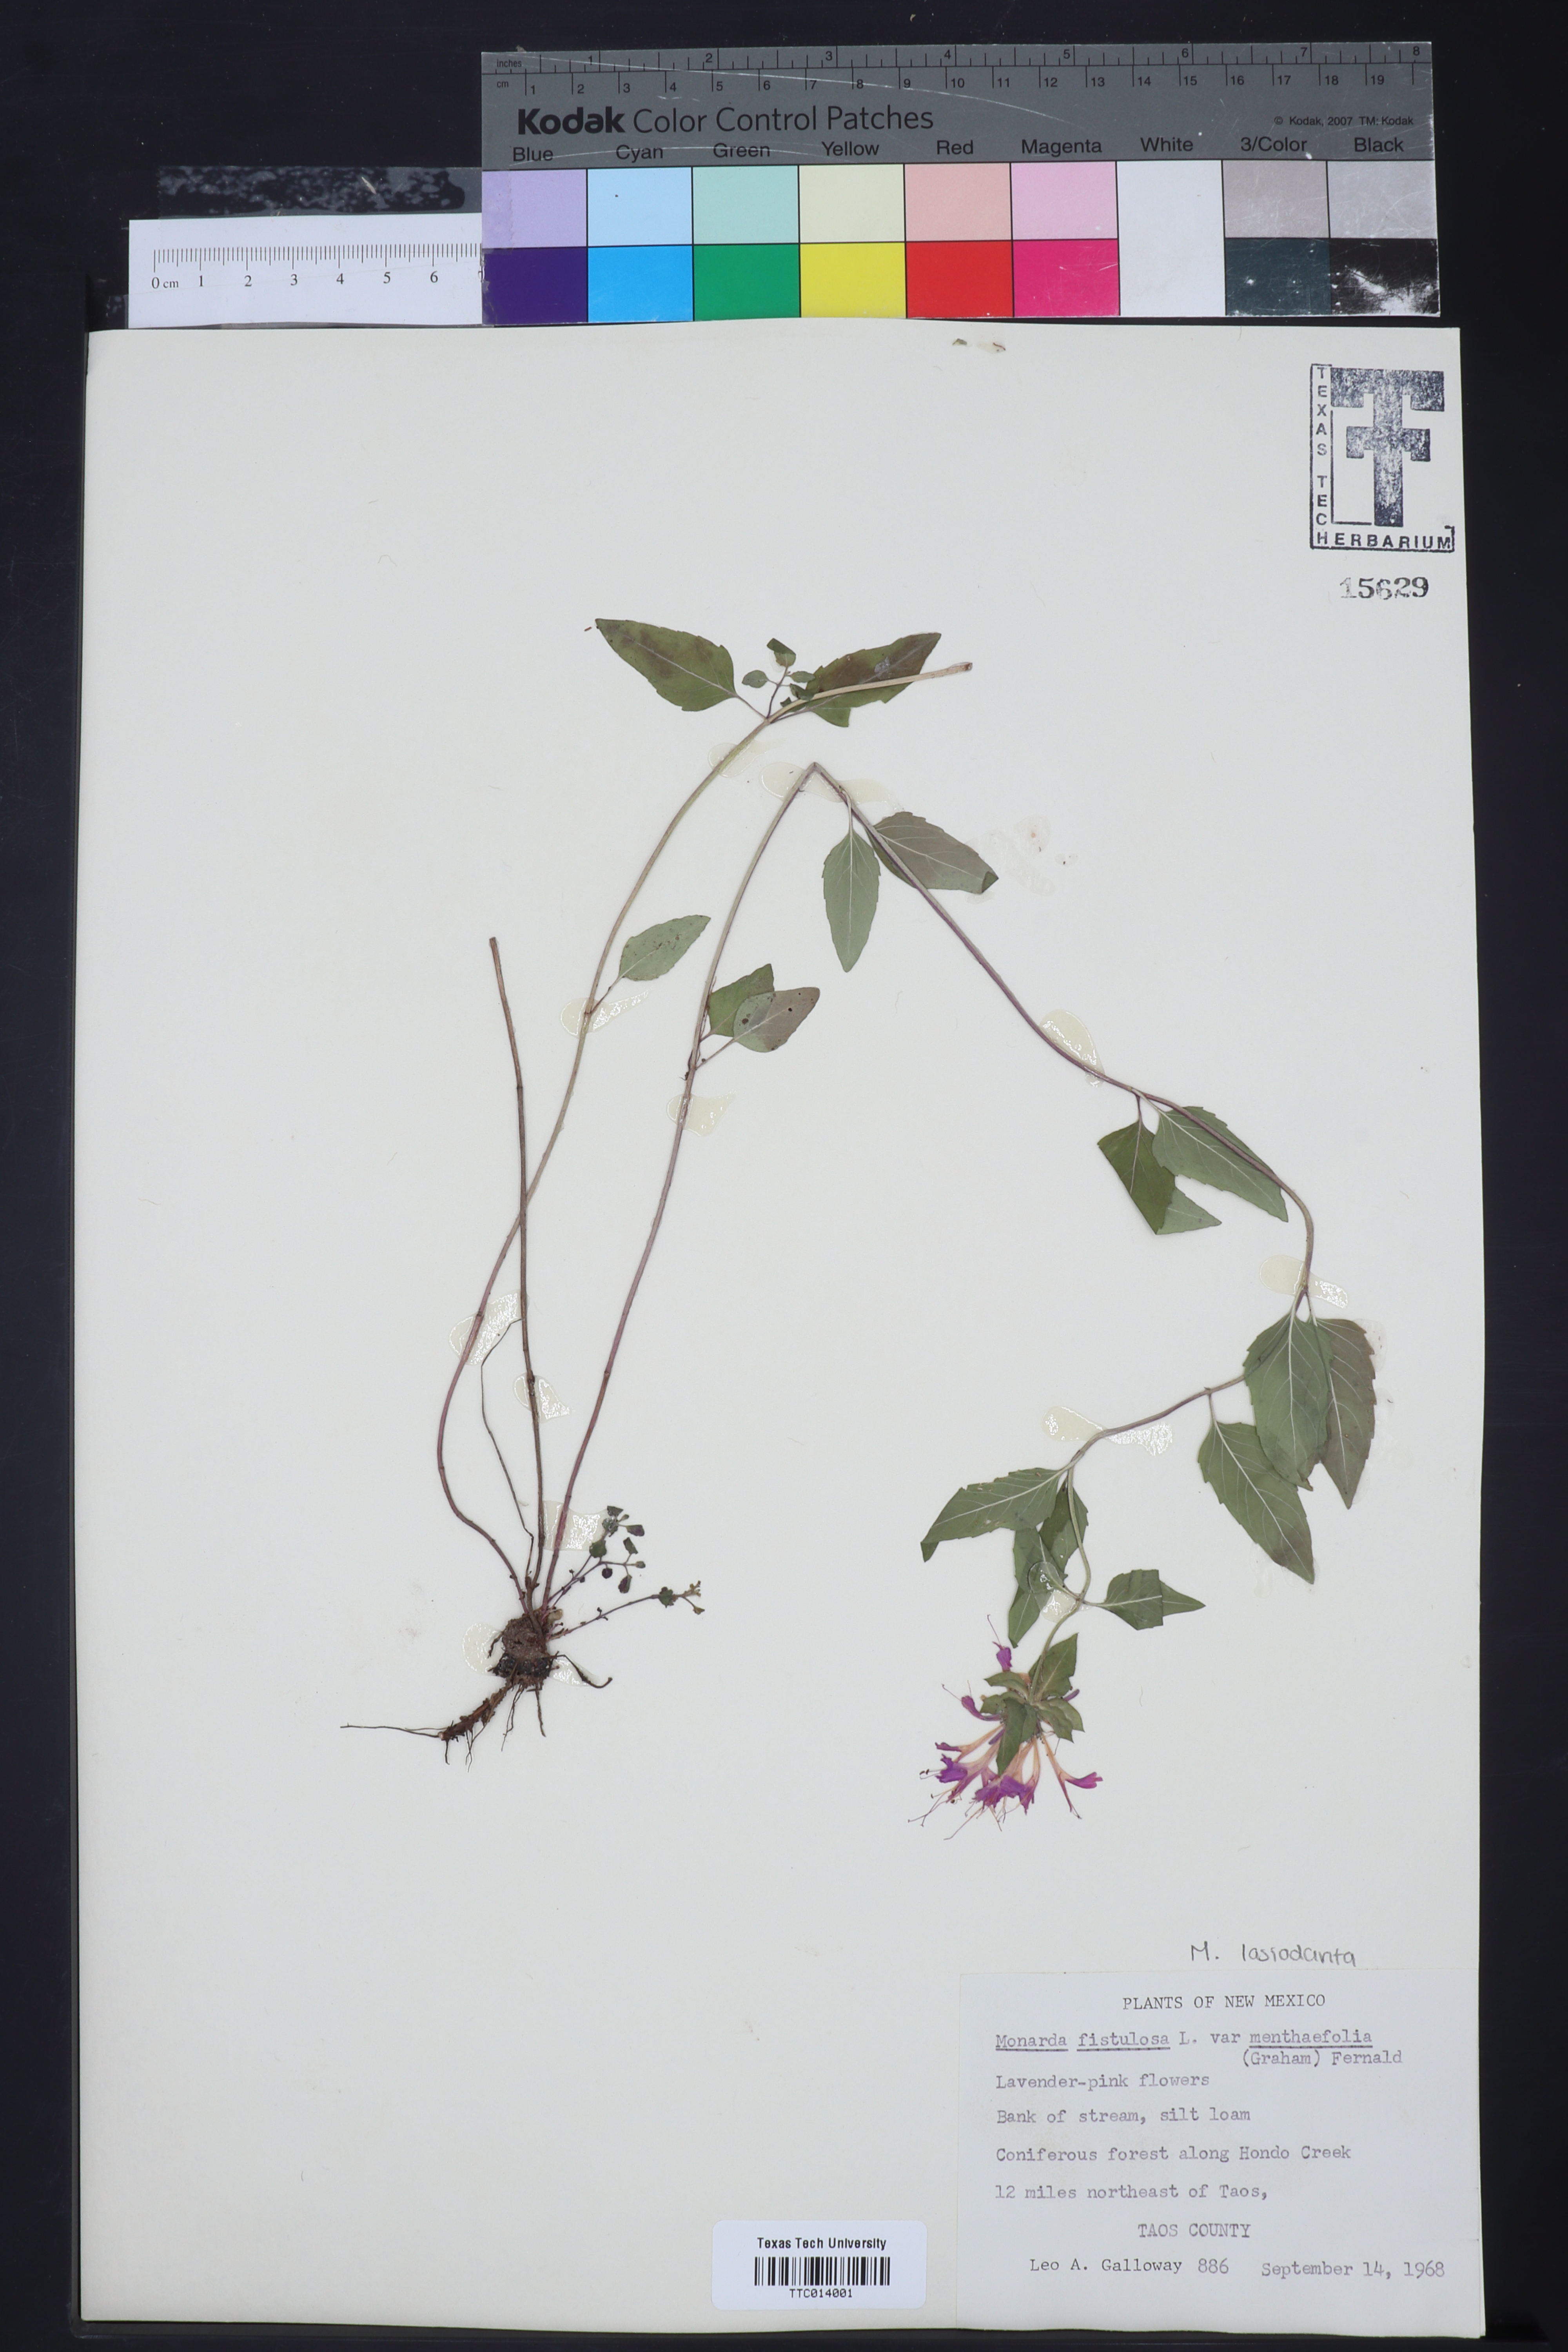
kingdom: Plantae
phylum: Tracheophyta
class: Magnoliopsida
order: Lamiales
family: Lamiaceae
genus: Monarda
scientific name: Monarda fistulosa
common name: Purple beebalm
